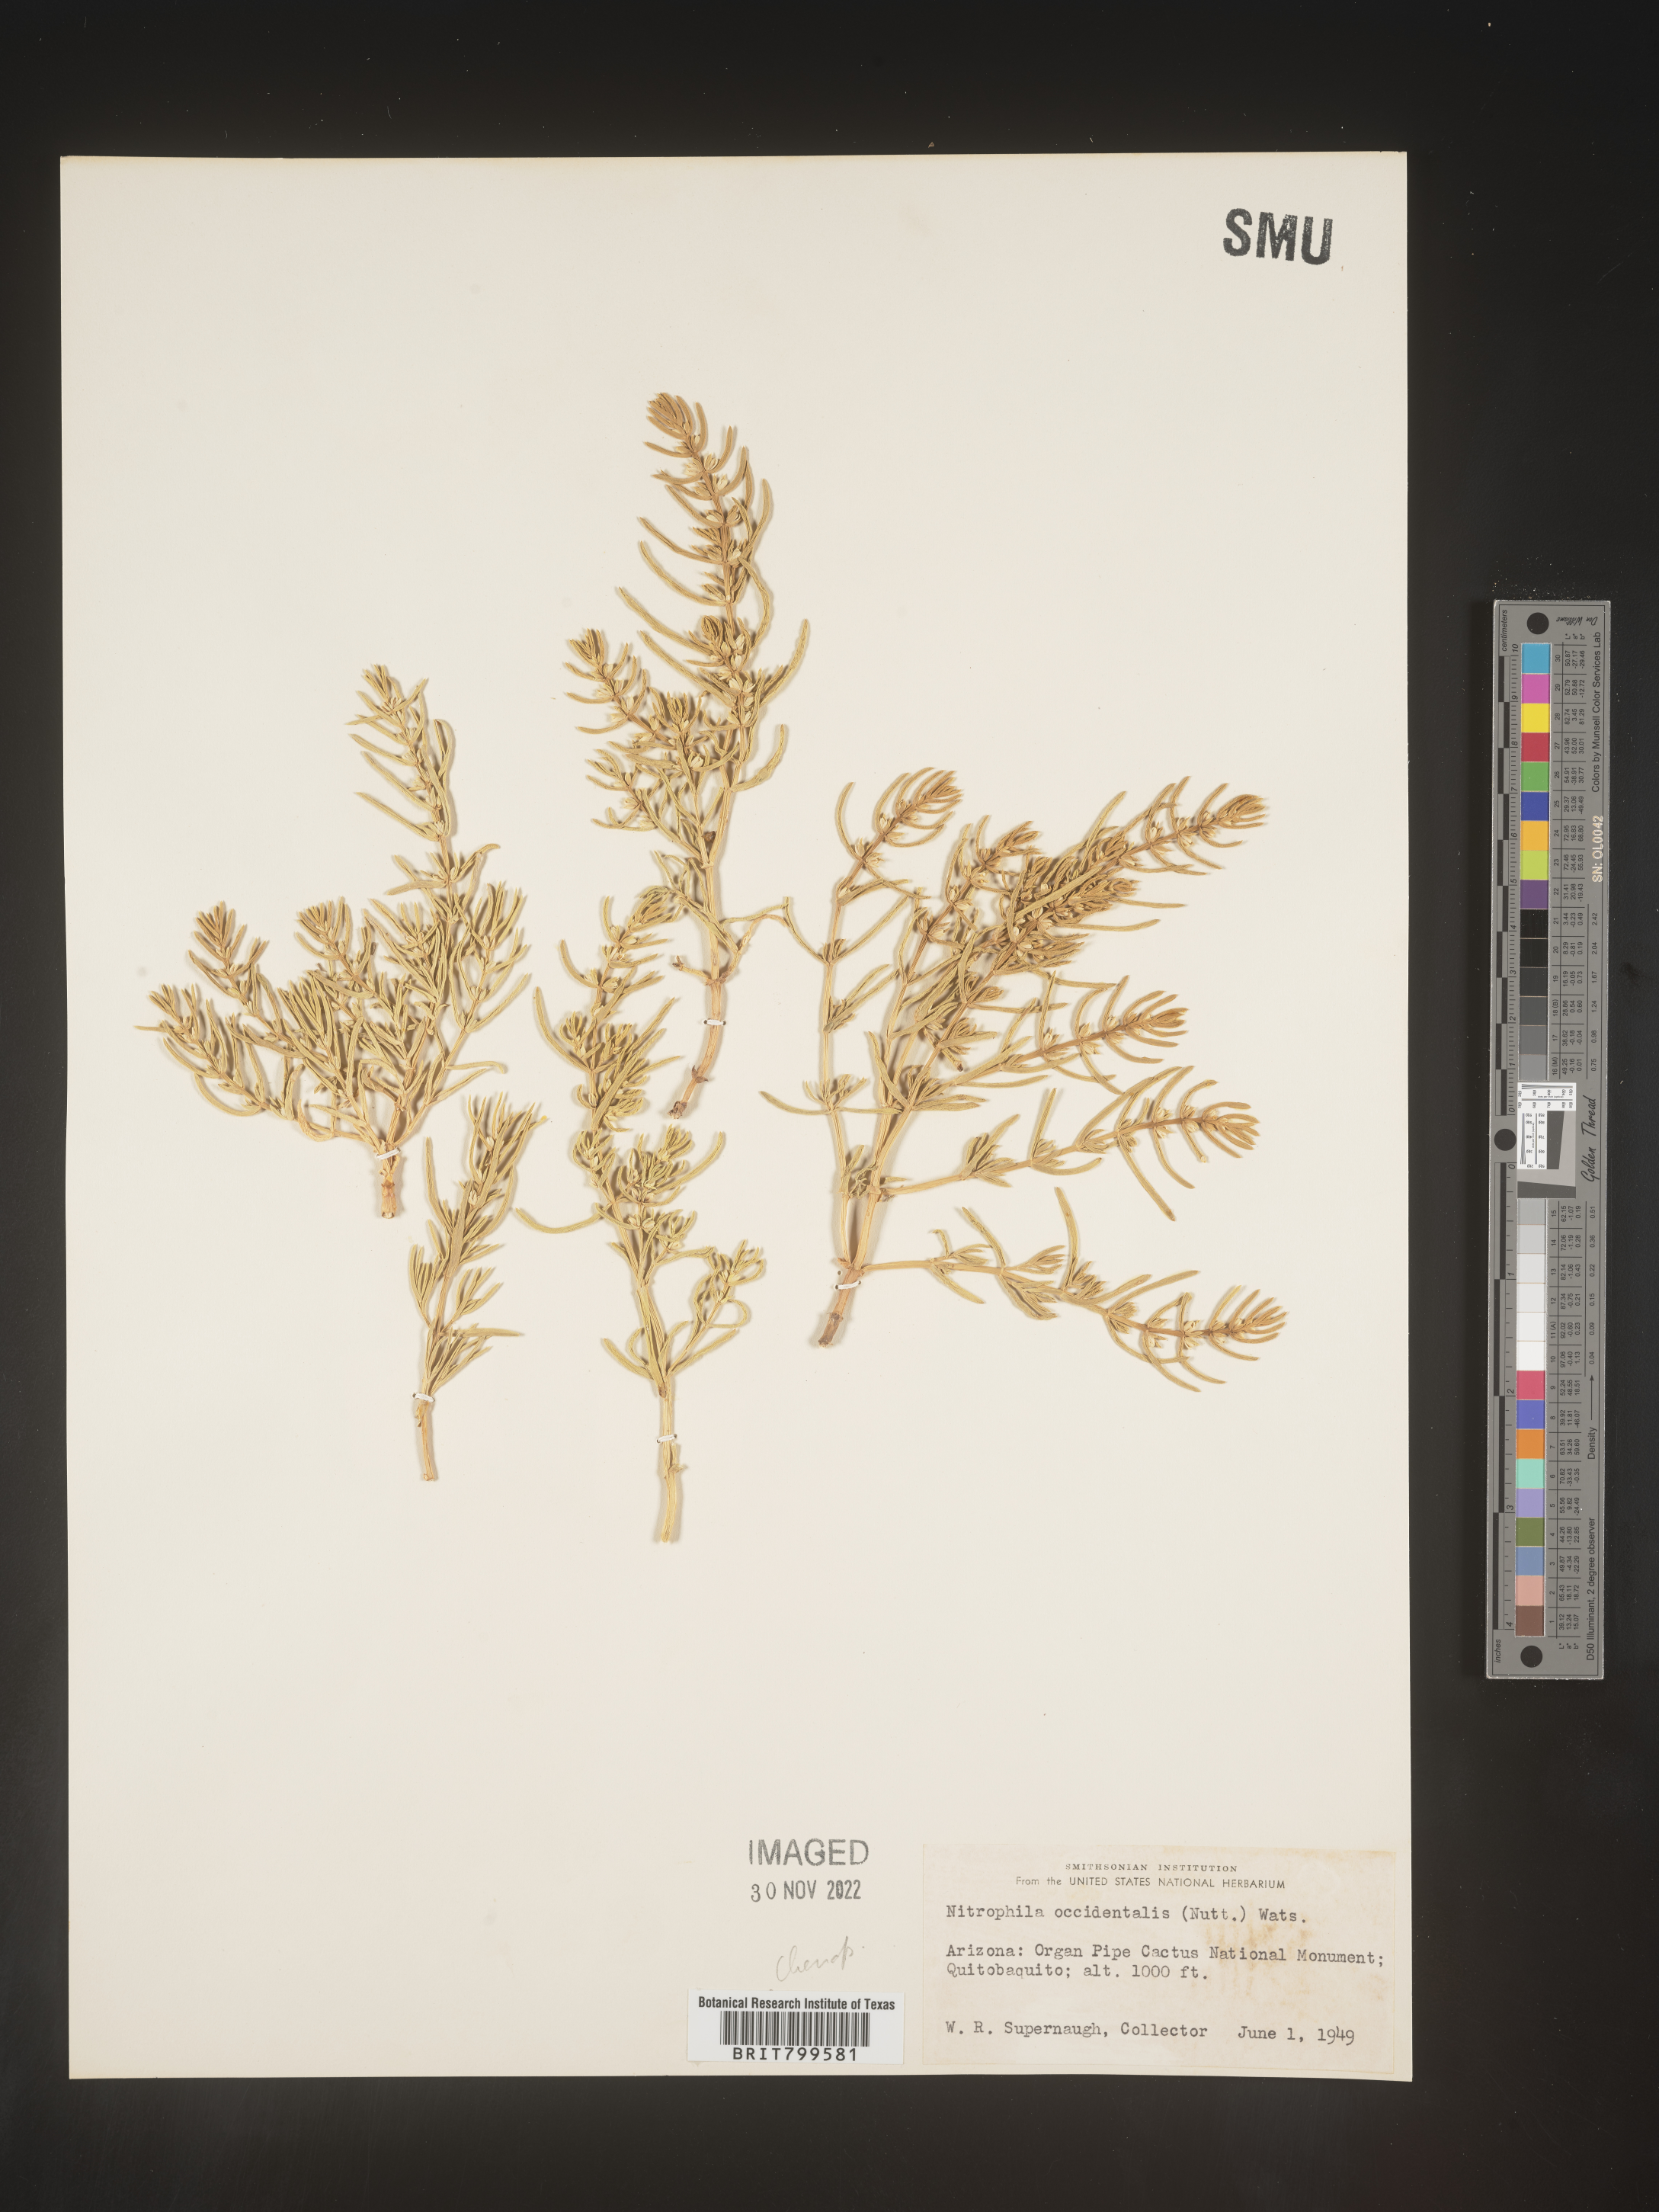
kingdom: Plantae
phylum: Tracheophyta
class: Magnoliopsida
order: Caryophyllales
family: Amaranthaceae
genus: Nitrophila
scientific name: Nitrophila occidentalis
